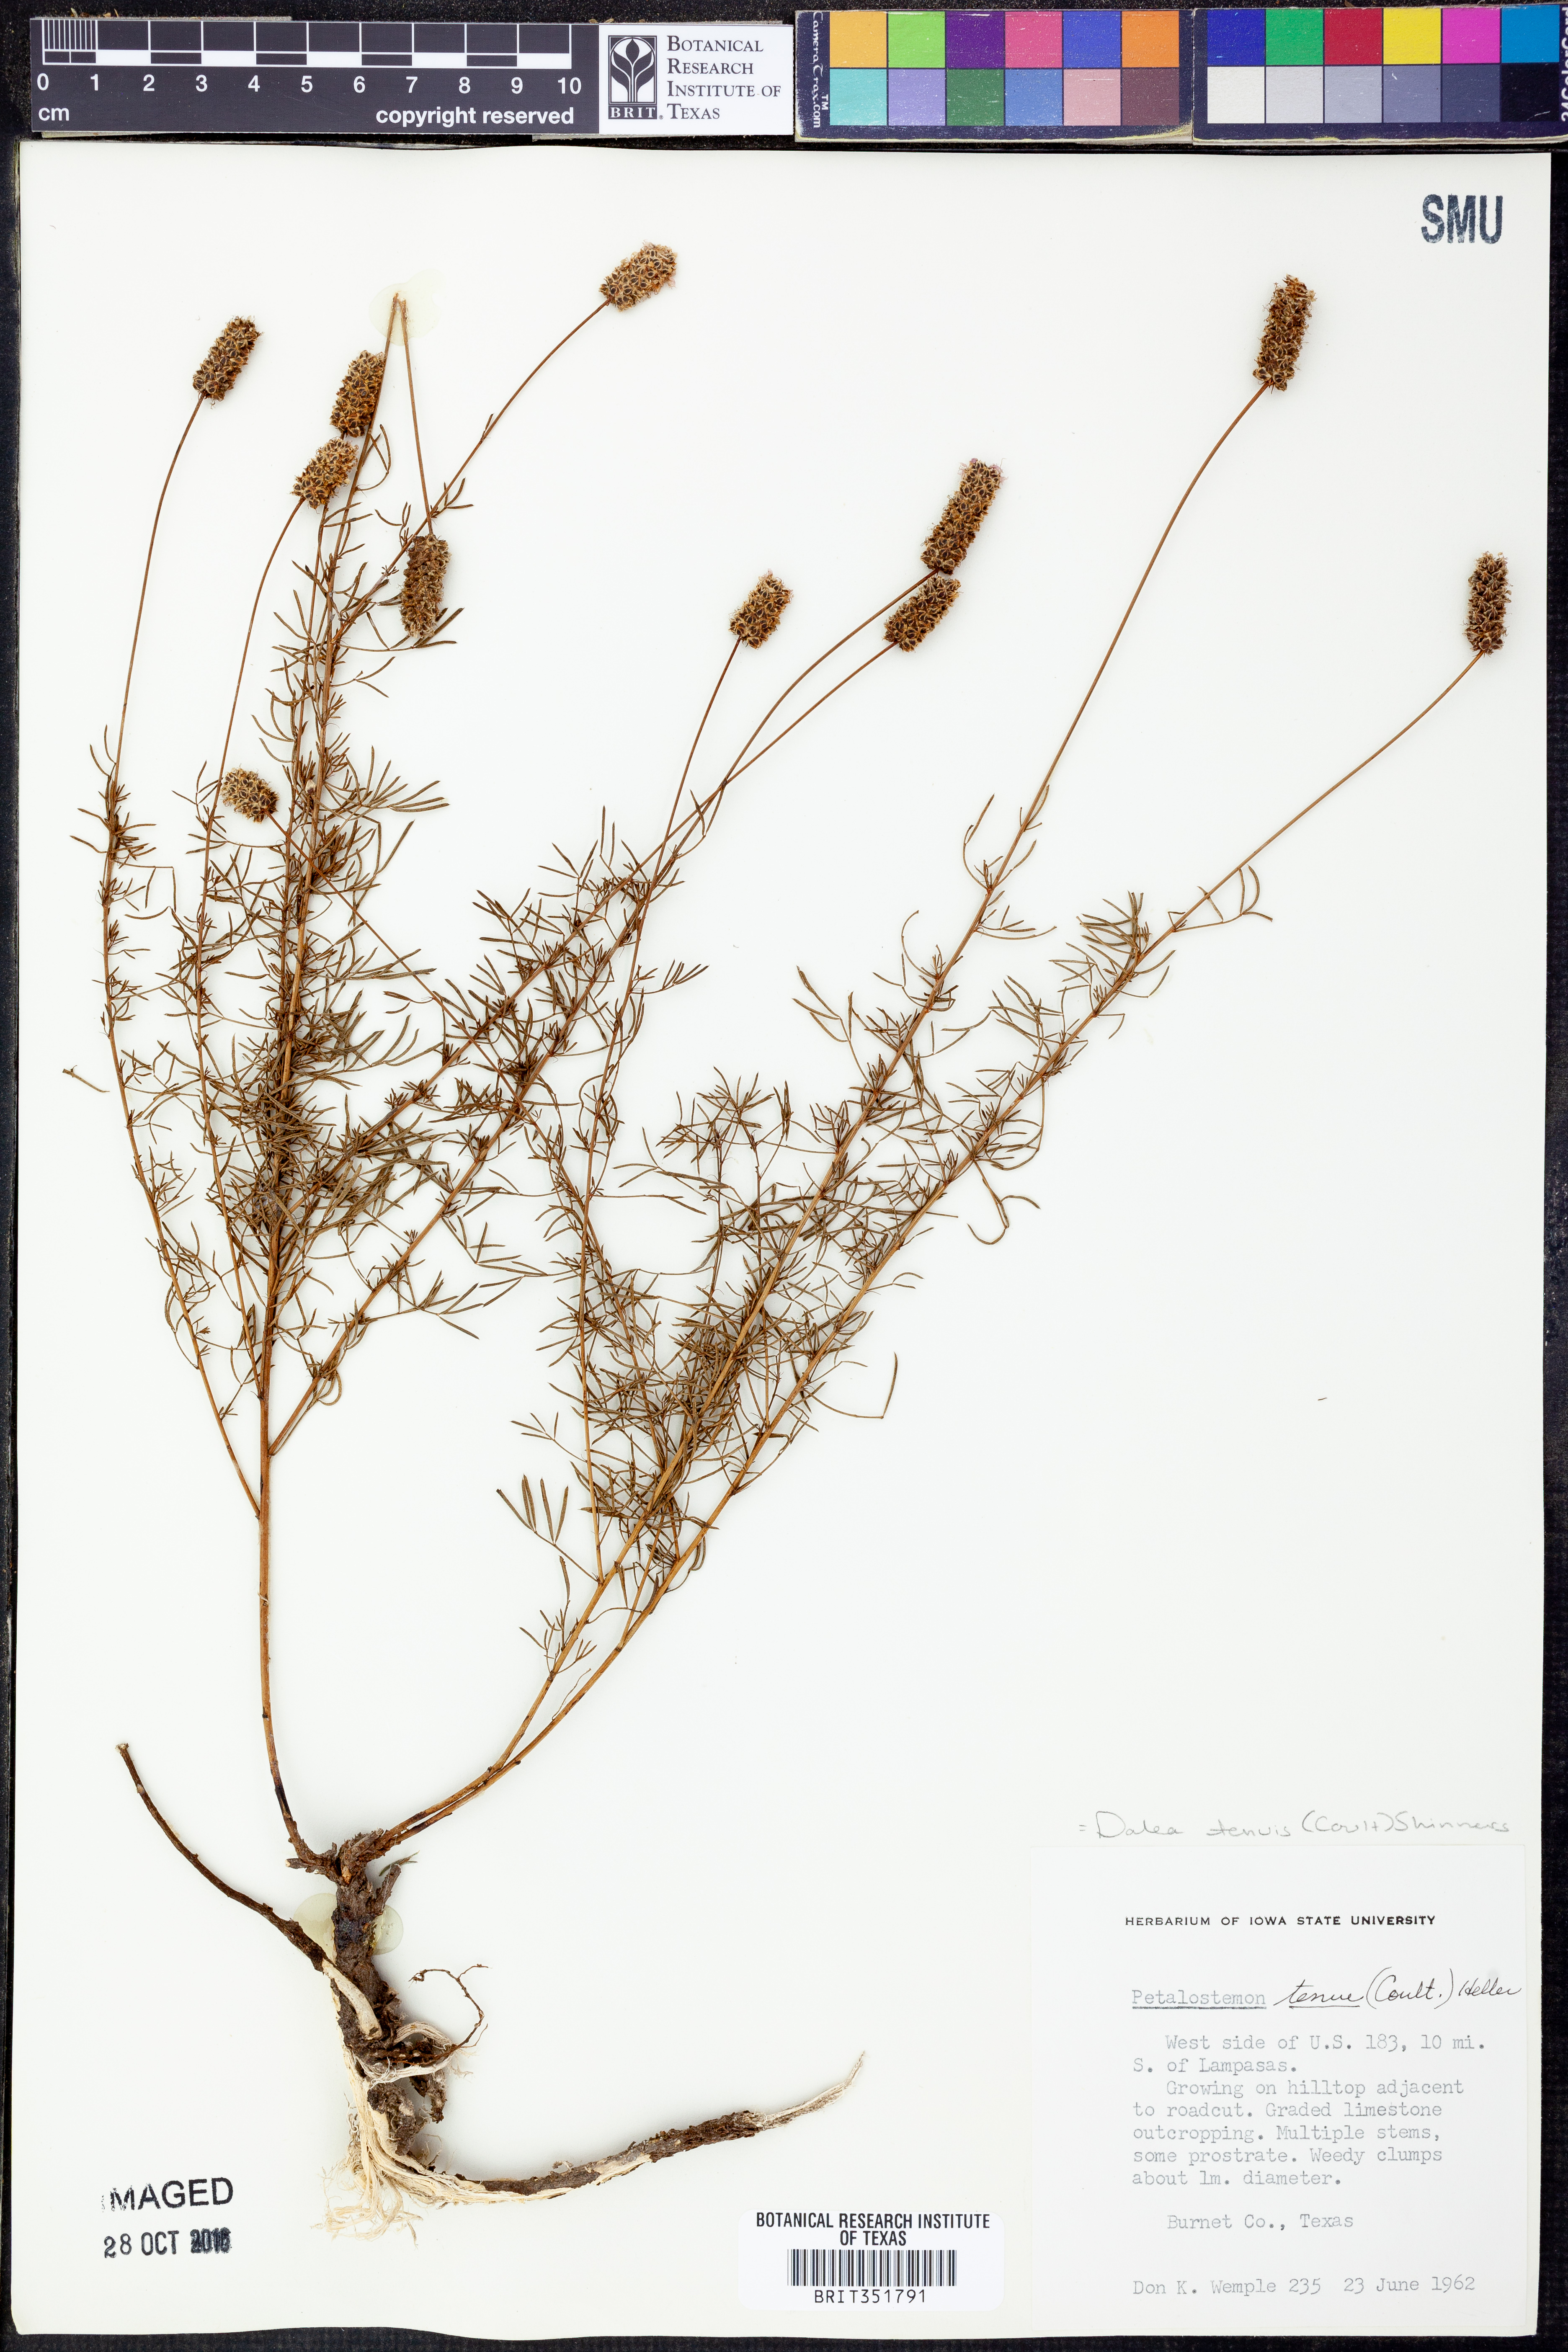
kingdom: Plantae
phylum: Tracheophyta
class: Magnoliopsida
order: Fabales
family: Fabaceae
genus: Dalea
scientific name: Dalea tenuis
